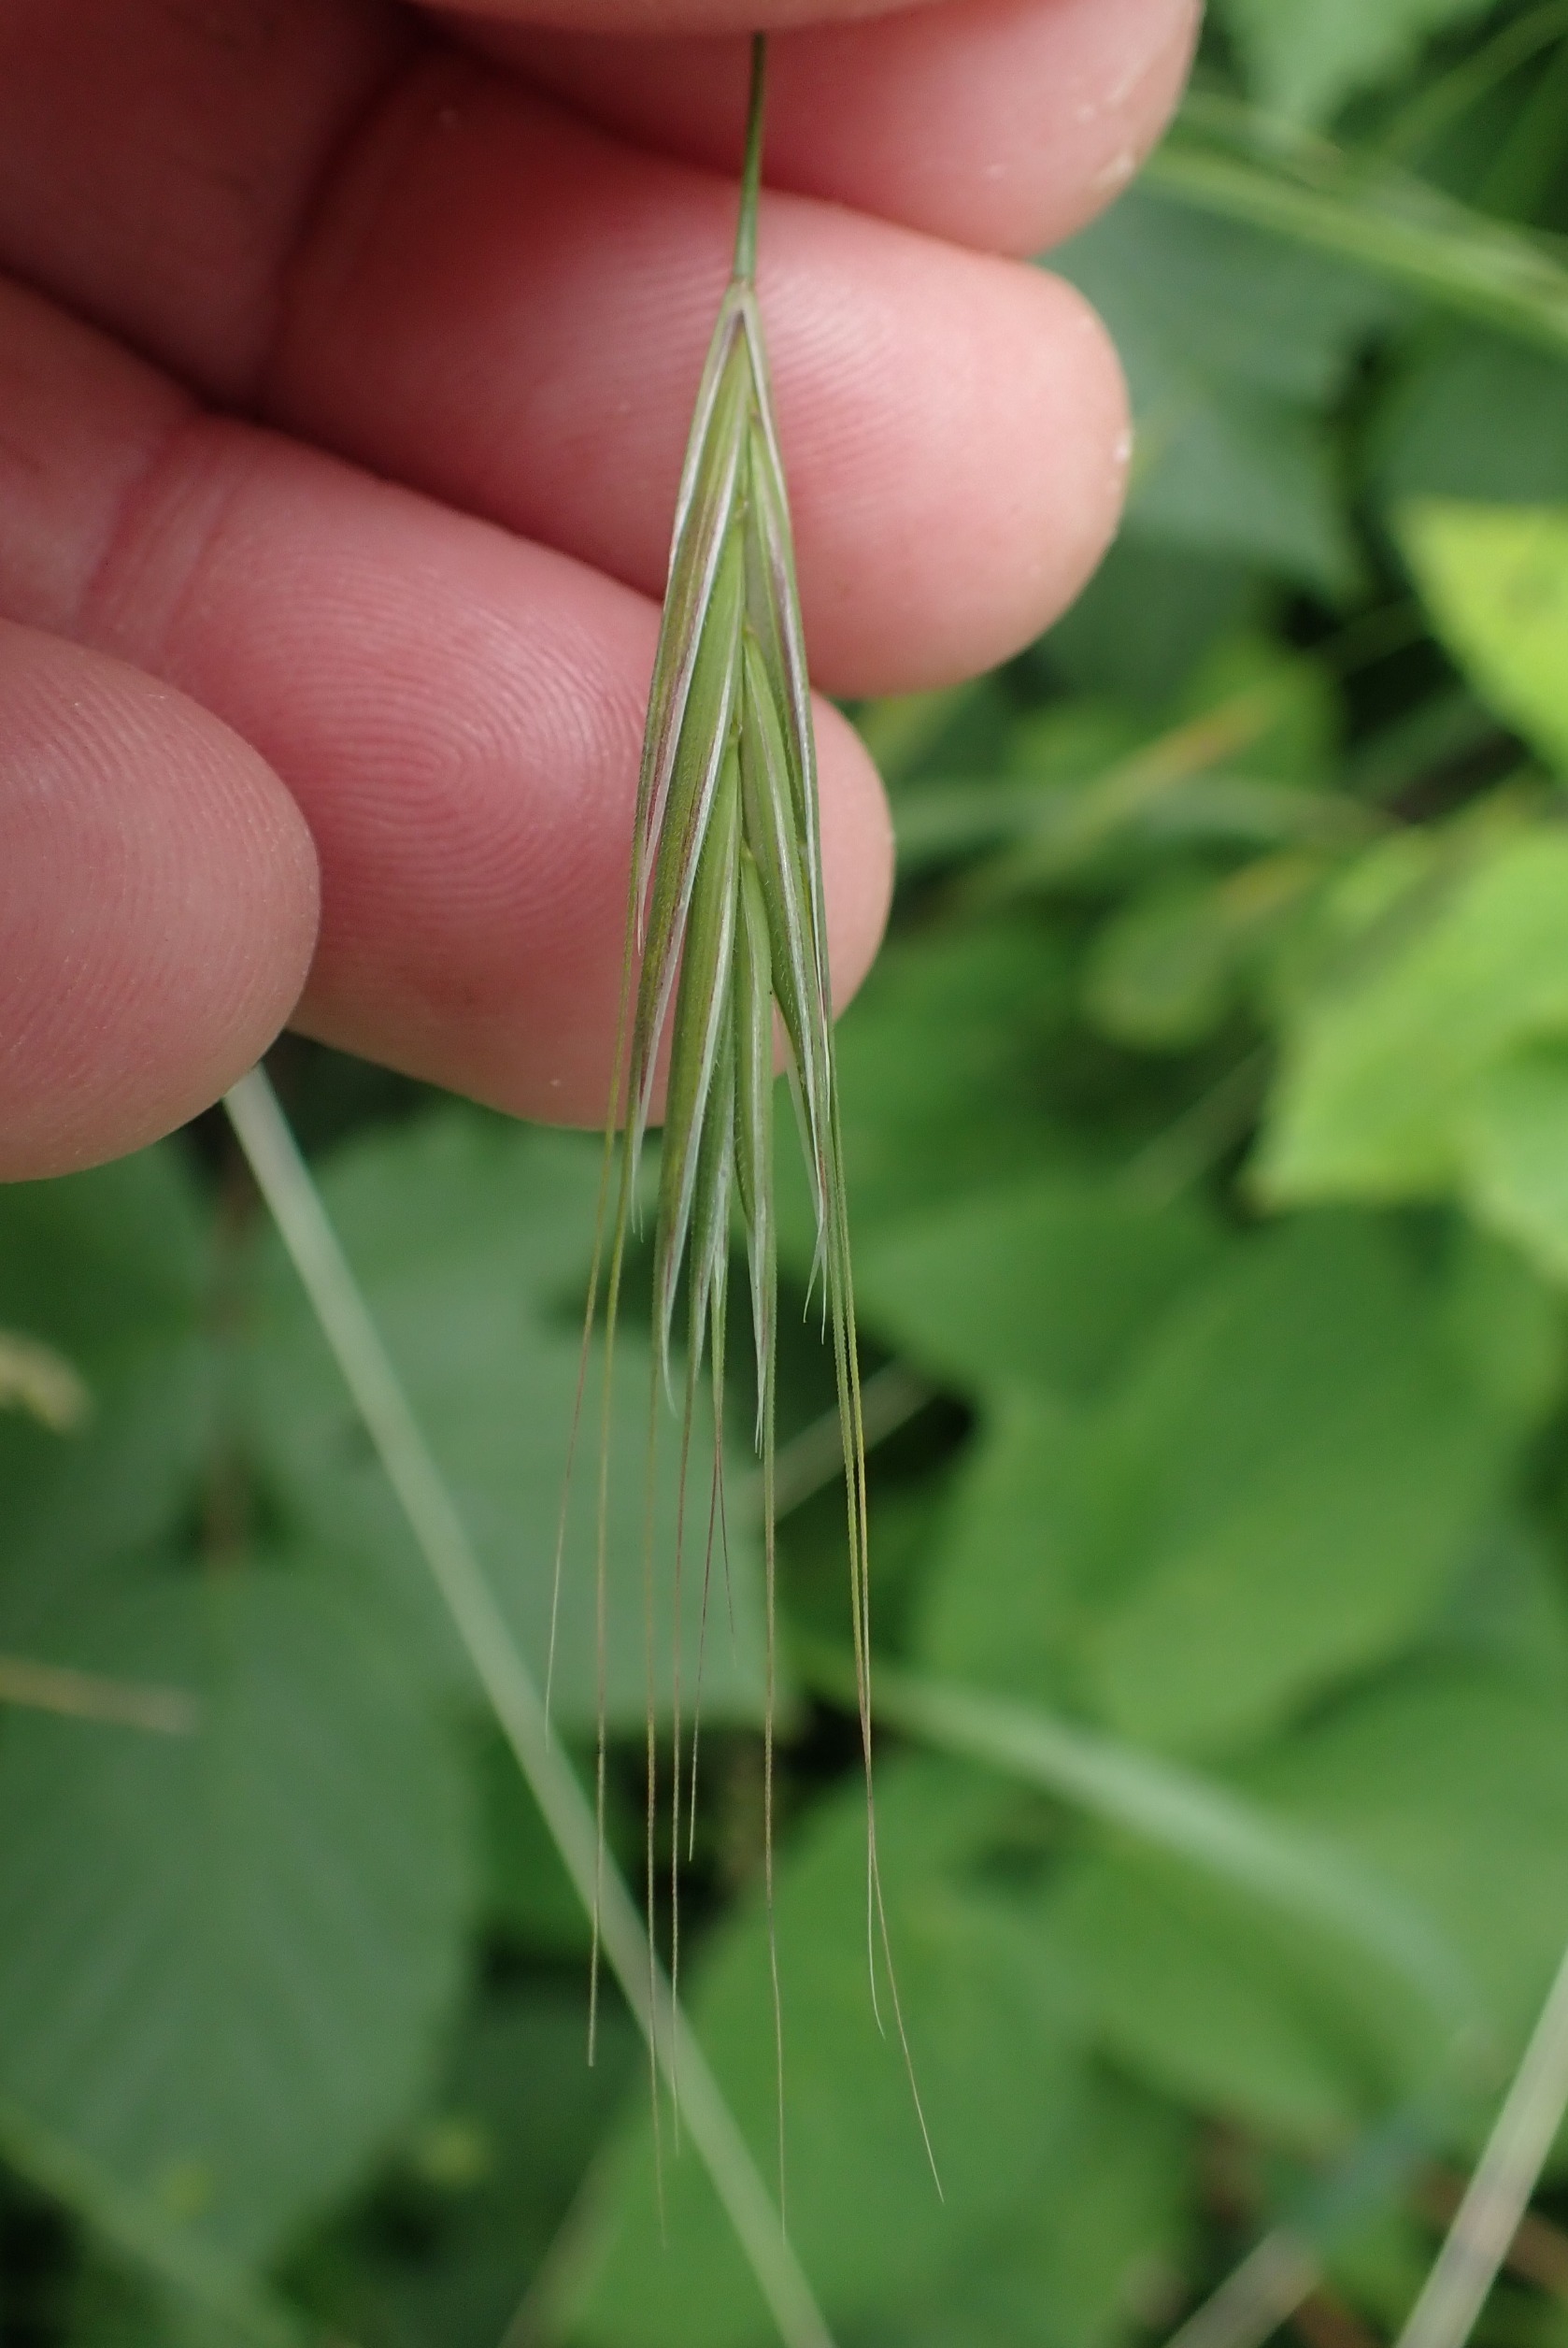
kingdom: Plantae
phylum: Tracheophyta
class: Liliopsida
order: Poales
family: Poaceae
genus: Bromus
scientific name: Bromus sterilis
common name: Gold hejre
